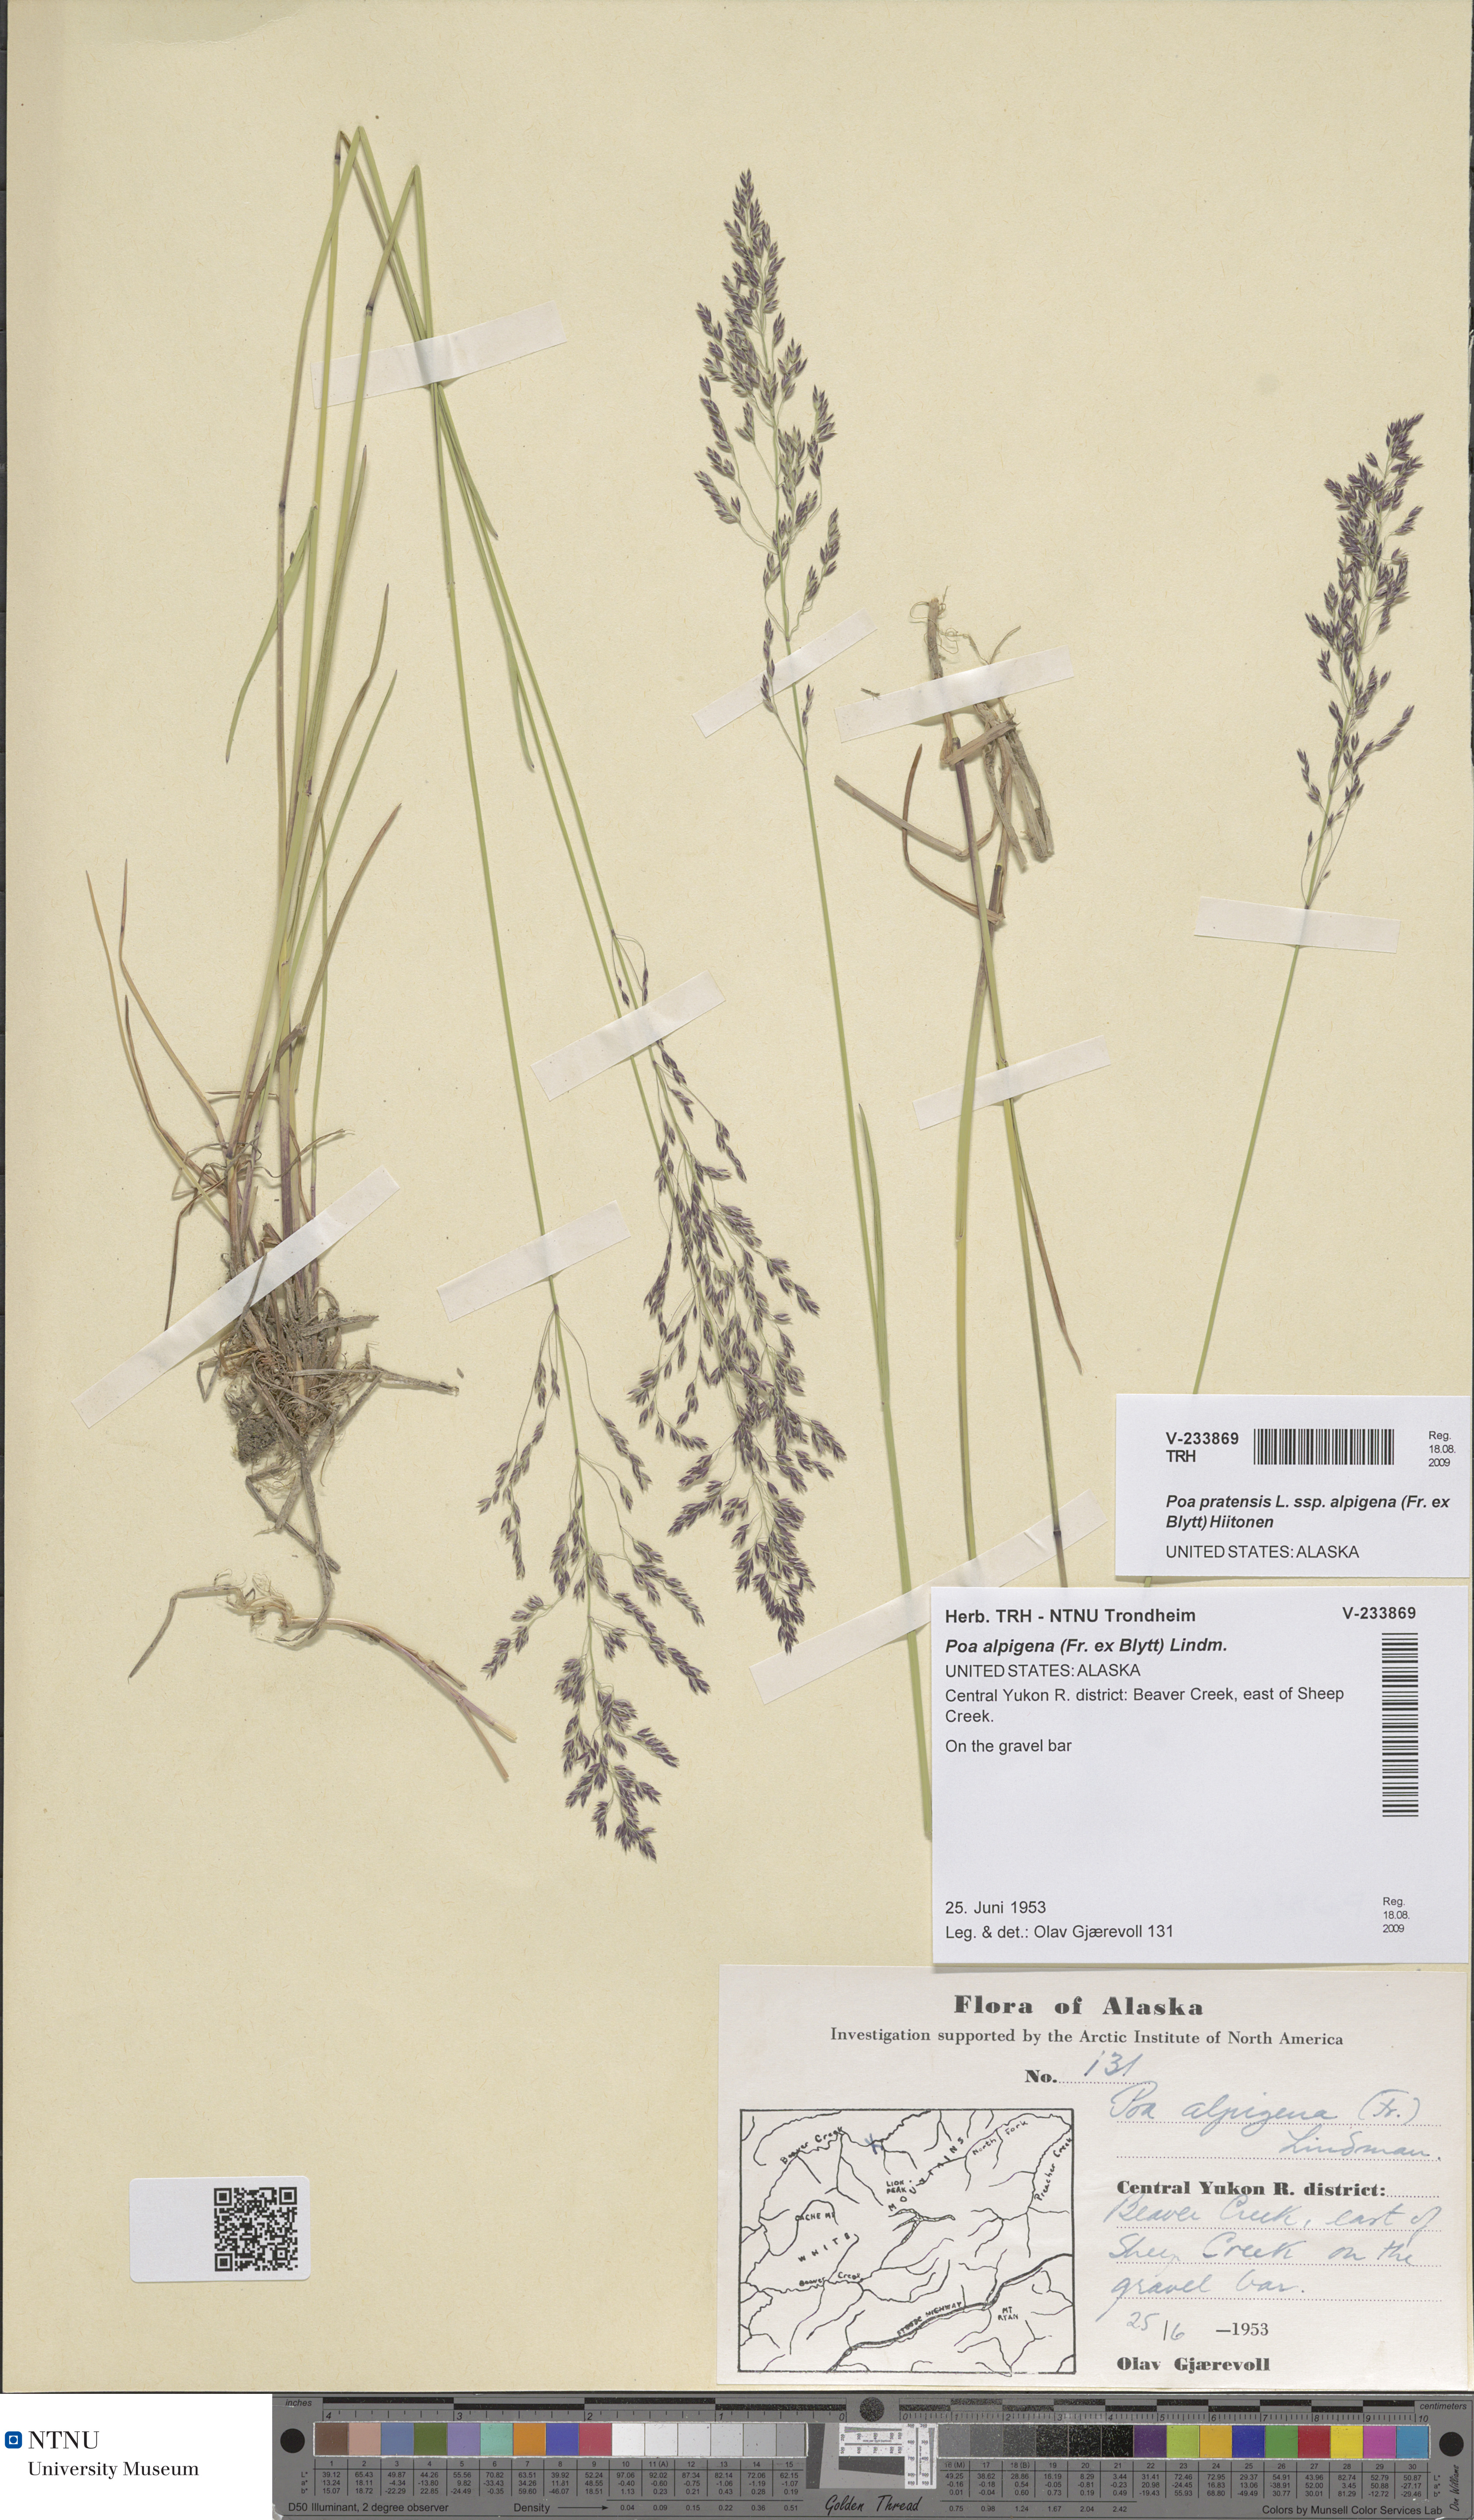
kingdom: Plantae
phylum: Tracheophyta
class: Liliopsida
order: Poales
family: Poaceae
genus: Poa
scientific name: Poa alpigena
